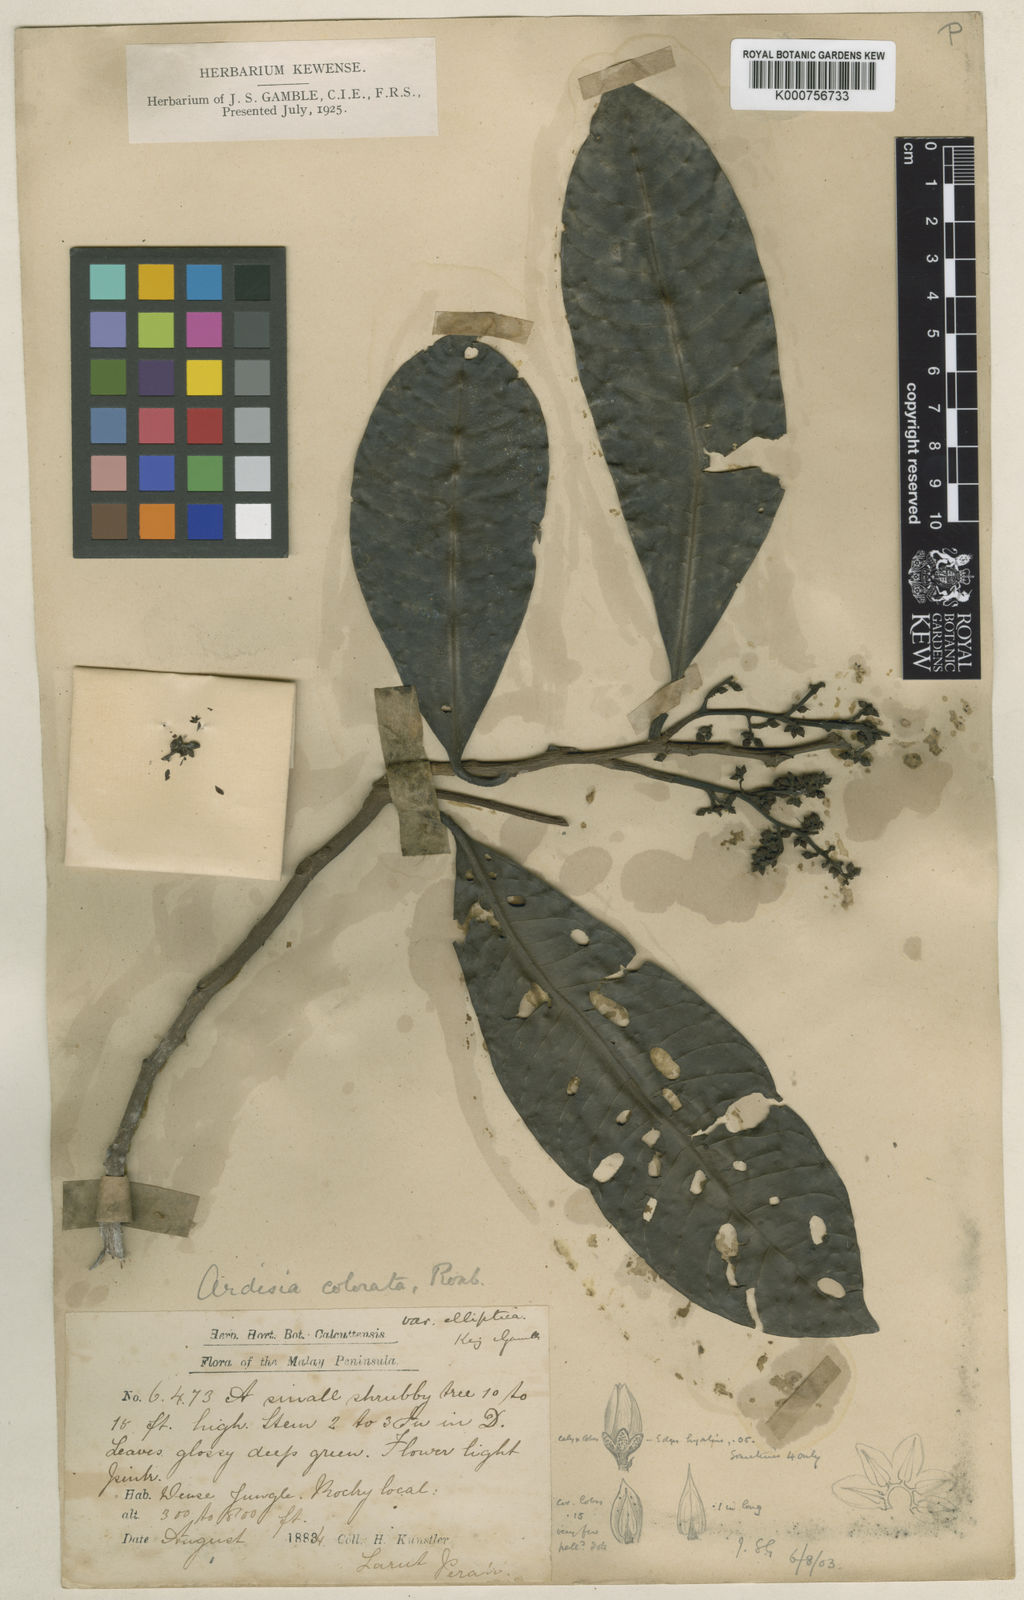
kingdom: Plantae
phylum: Tracheophyta
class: Magnoliopsida
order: Ericales
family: Primulaceae
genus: Ardisia
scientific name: Ardisia complanata
